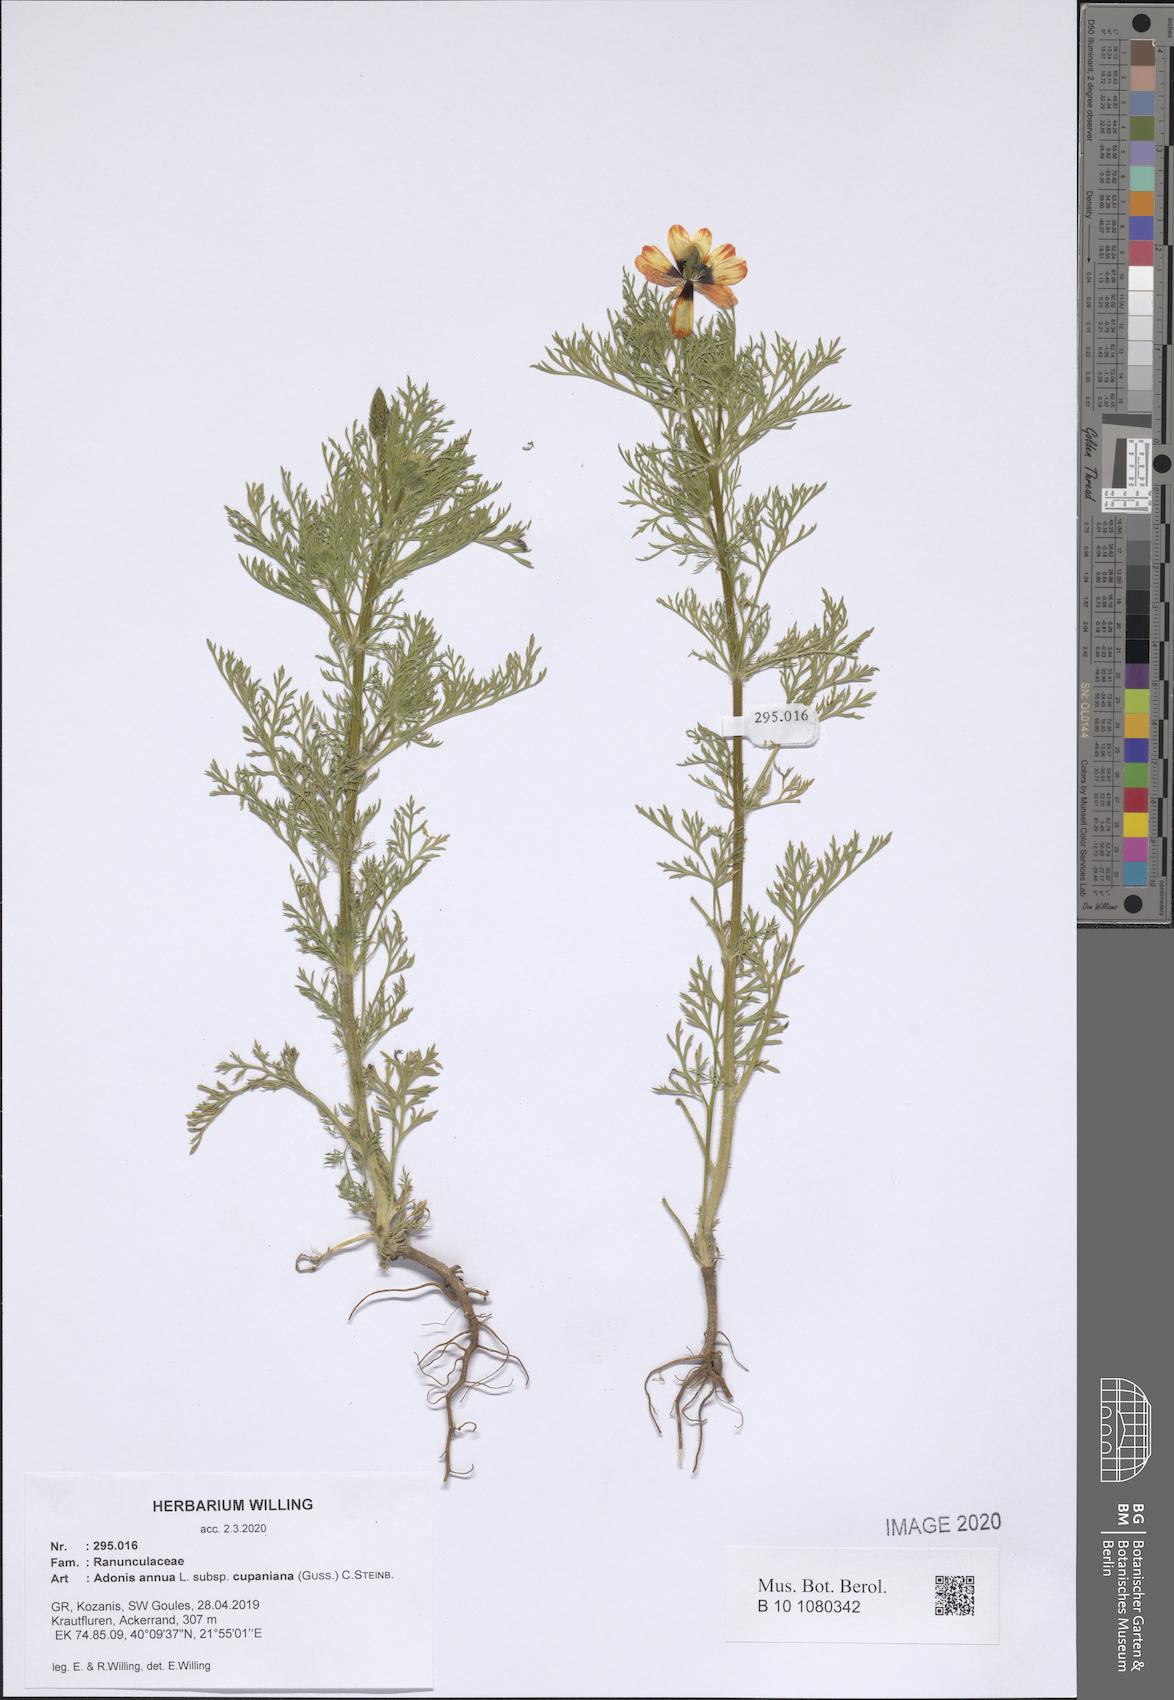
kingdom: Plantae
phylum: Tracheophyta
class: Magnoliopsida
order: Ranunculales
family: Ranunculaceae
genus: Adonis
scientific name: Adonis annua
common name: Pheasant's-eye
